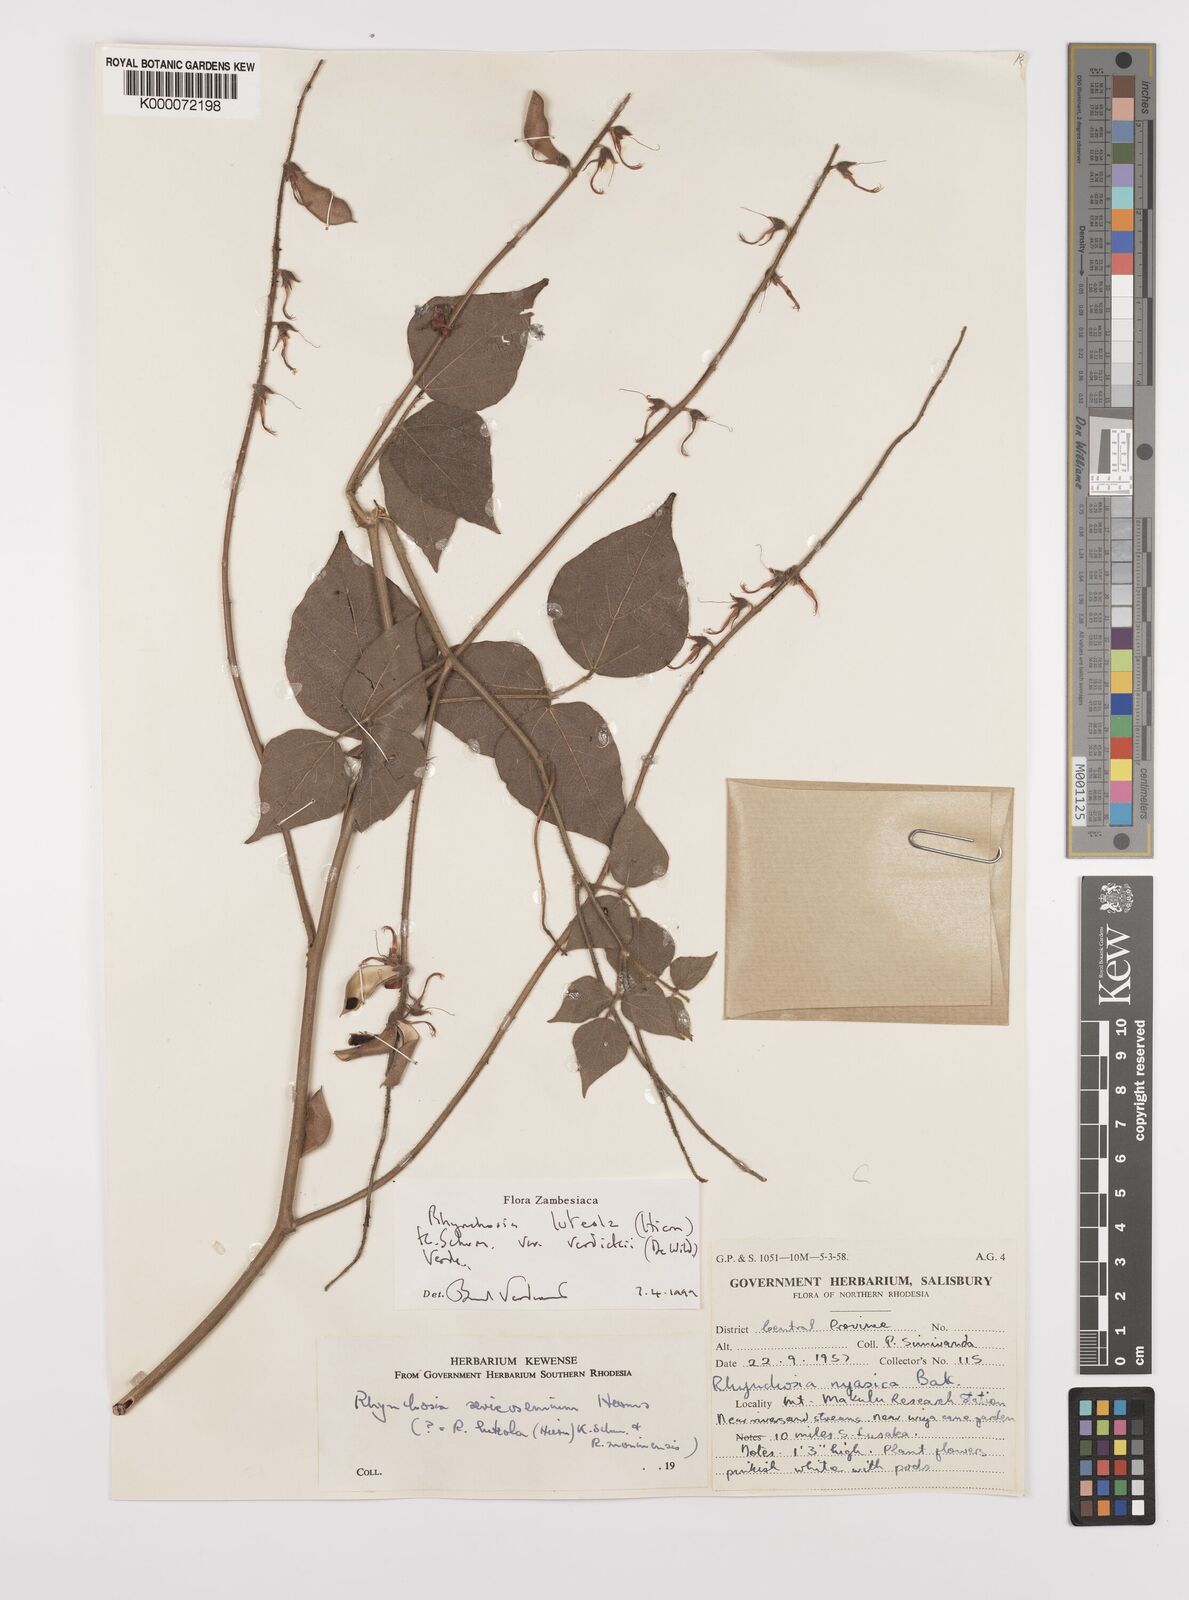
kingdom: Plantae
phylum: Tracheophyta
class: Magnoliopsida
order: Fabales
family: Fabaceae
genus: Rhynchosia
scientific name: Rhynchosia luteola
